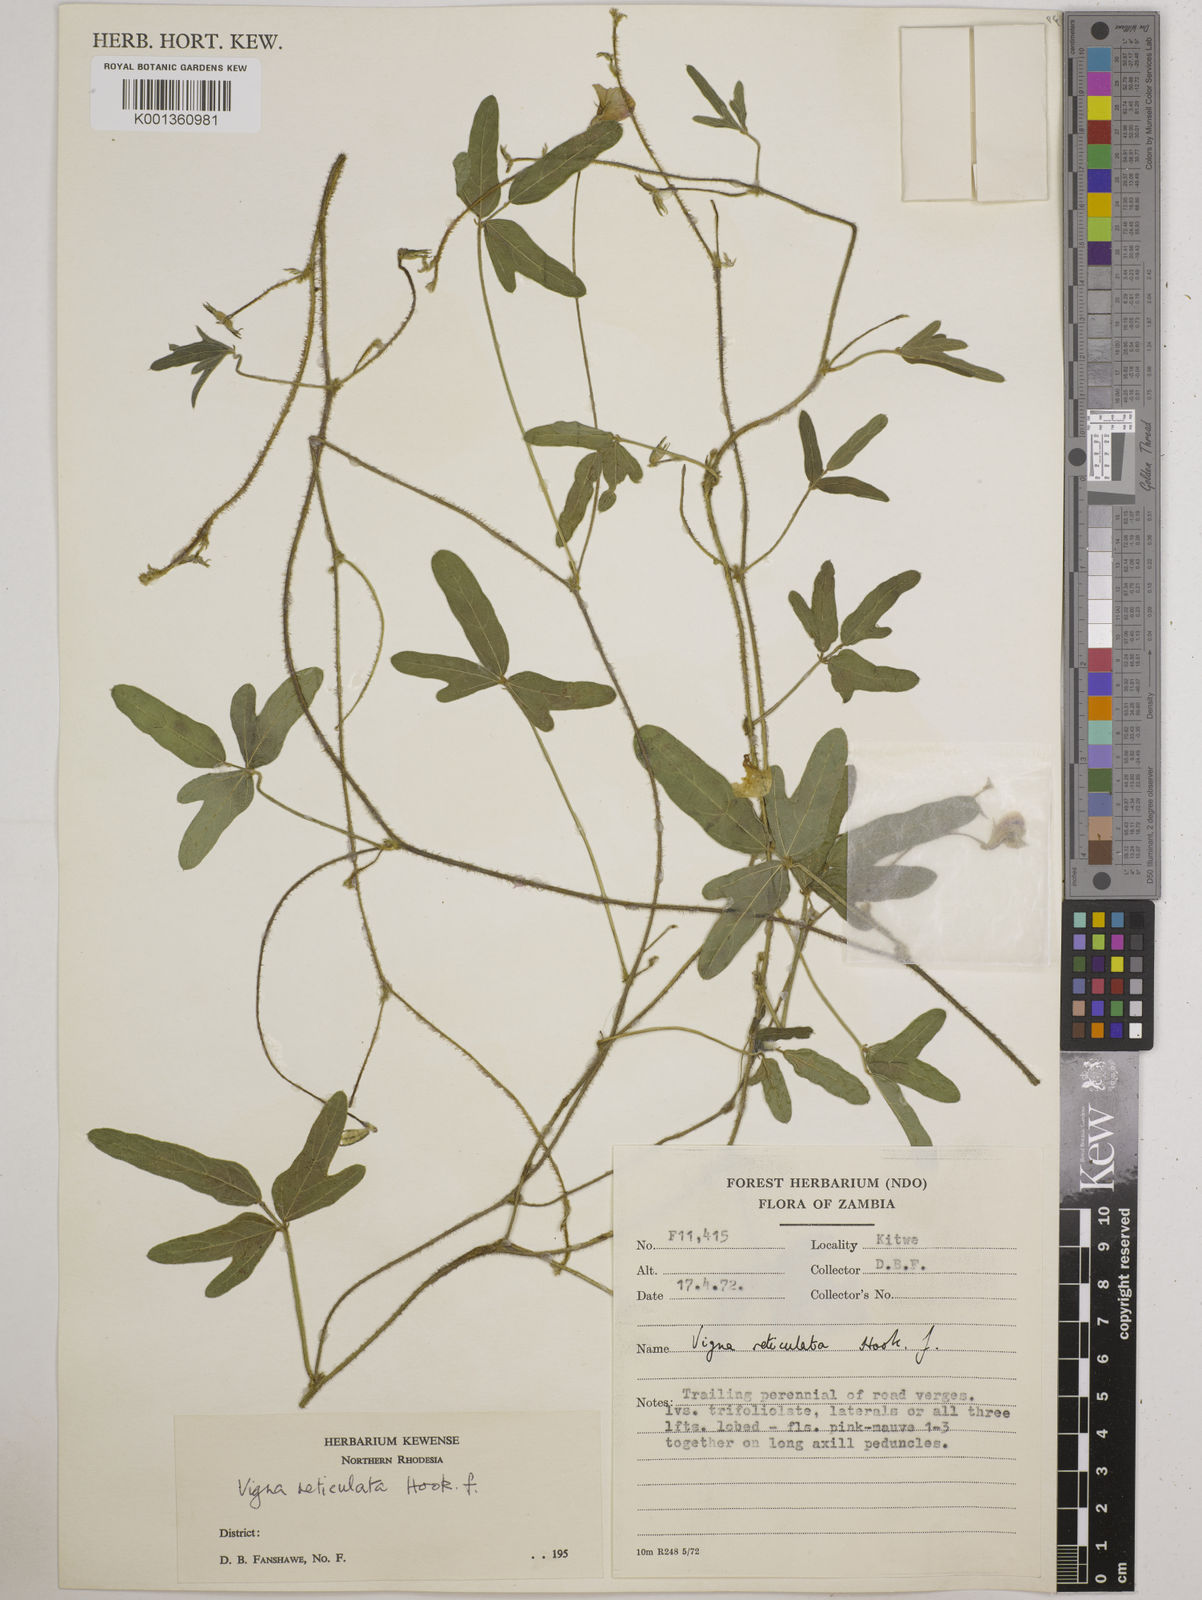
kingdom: Plantae
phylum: Tracheophyta
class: Magnoliopsida
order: Fabales
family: Fabaceae
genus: Vigna
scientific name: Vigna reticulata
